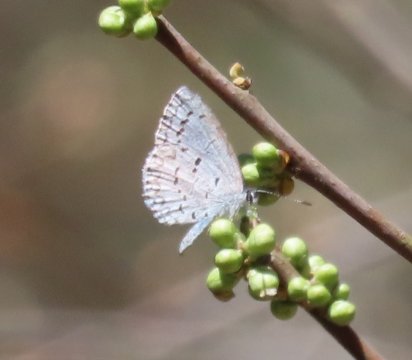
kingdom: Animalia
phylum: Arthropoda
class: Insecta
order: Lepidoptera
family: Lycaenidae
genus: Celastrina
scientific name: Celastrina
